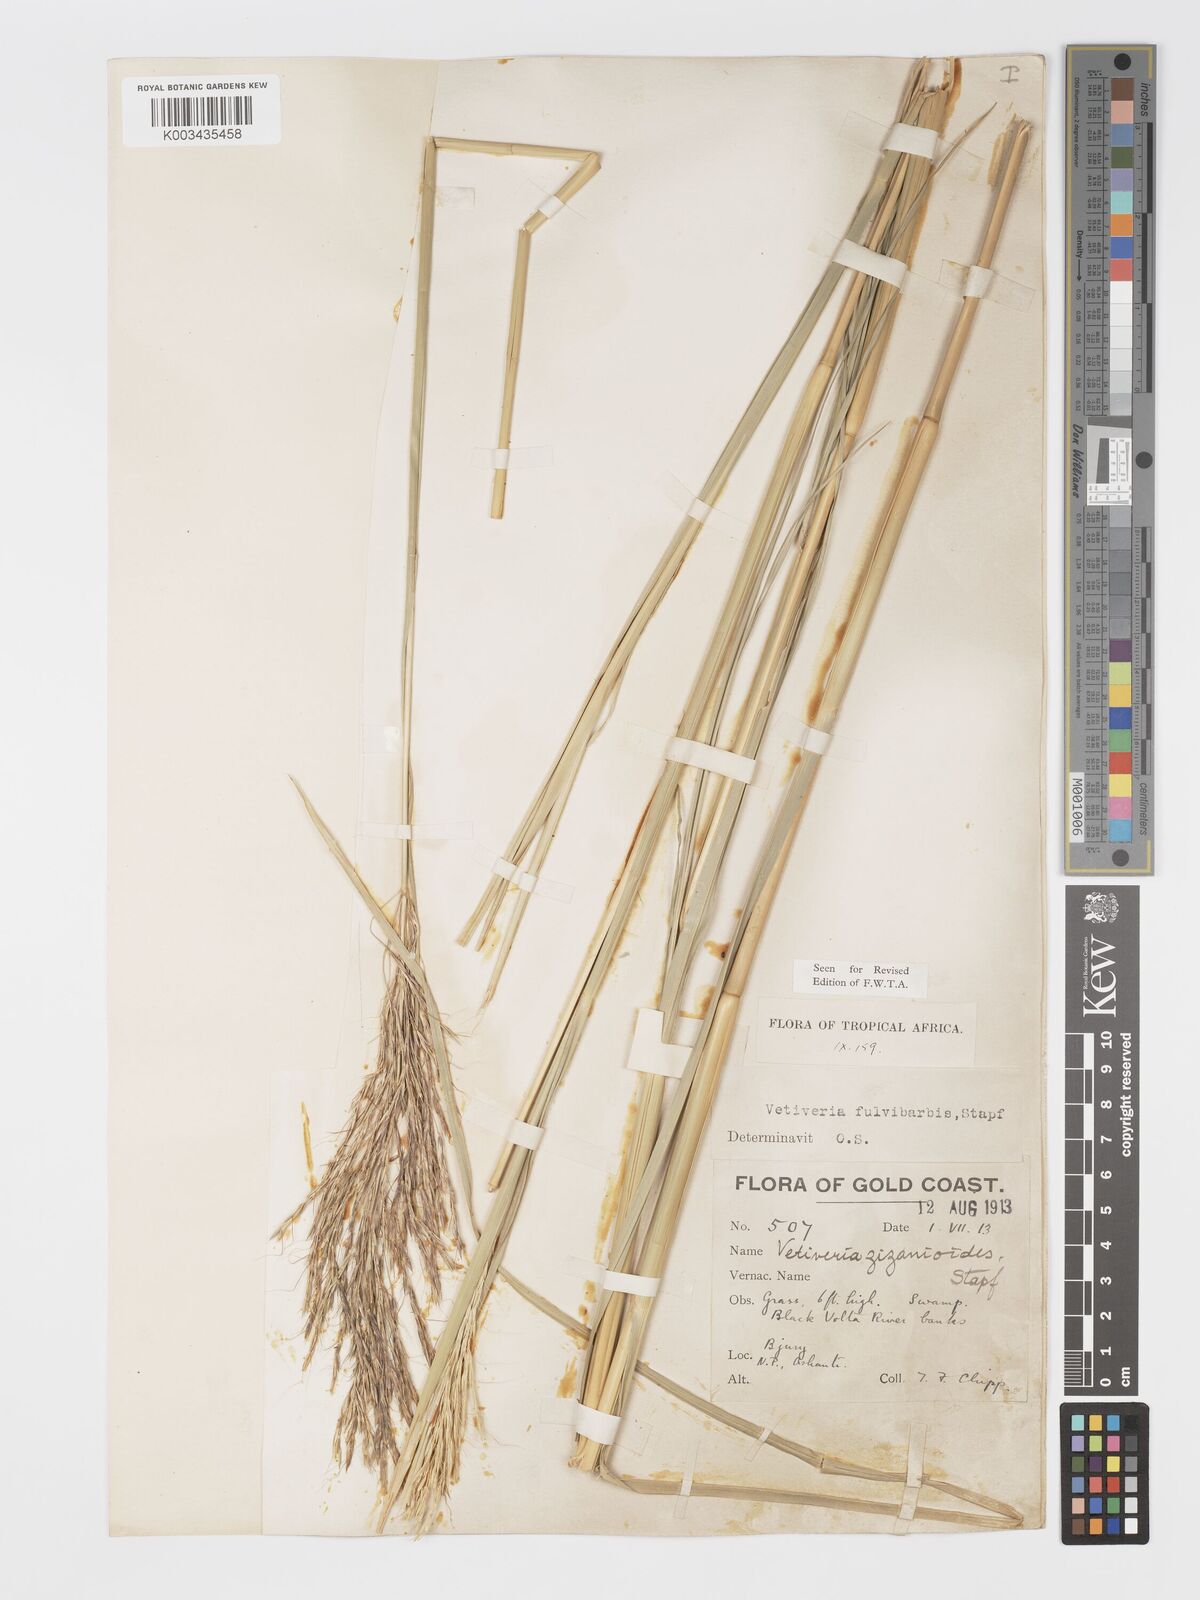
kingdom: Plantae
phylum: Tracheophyta
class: Liliopsida
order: Poales
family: Poaceae
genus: Chrysopogon
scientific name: Chrysopogon fulvibarbis
